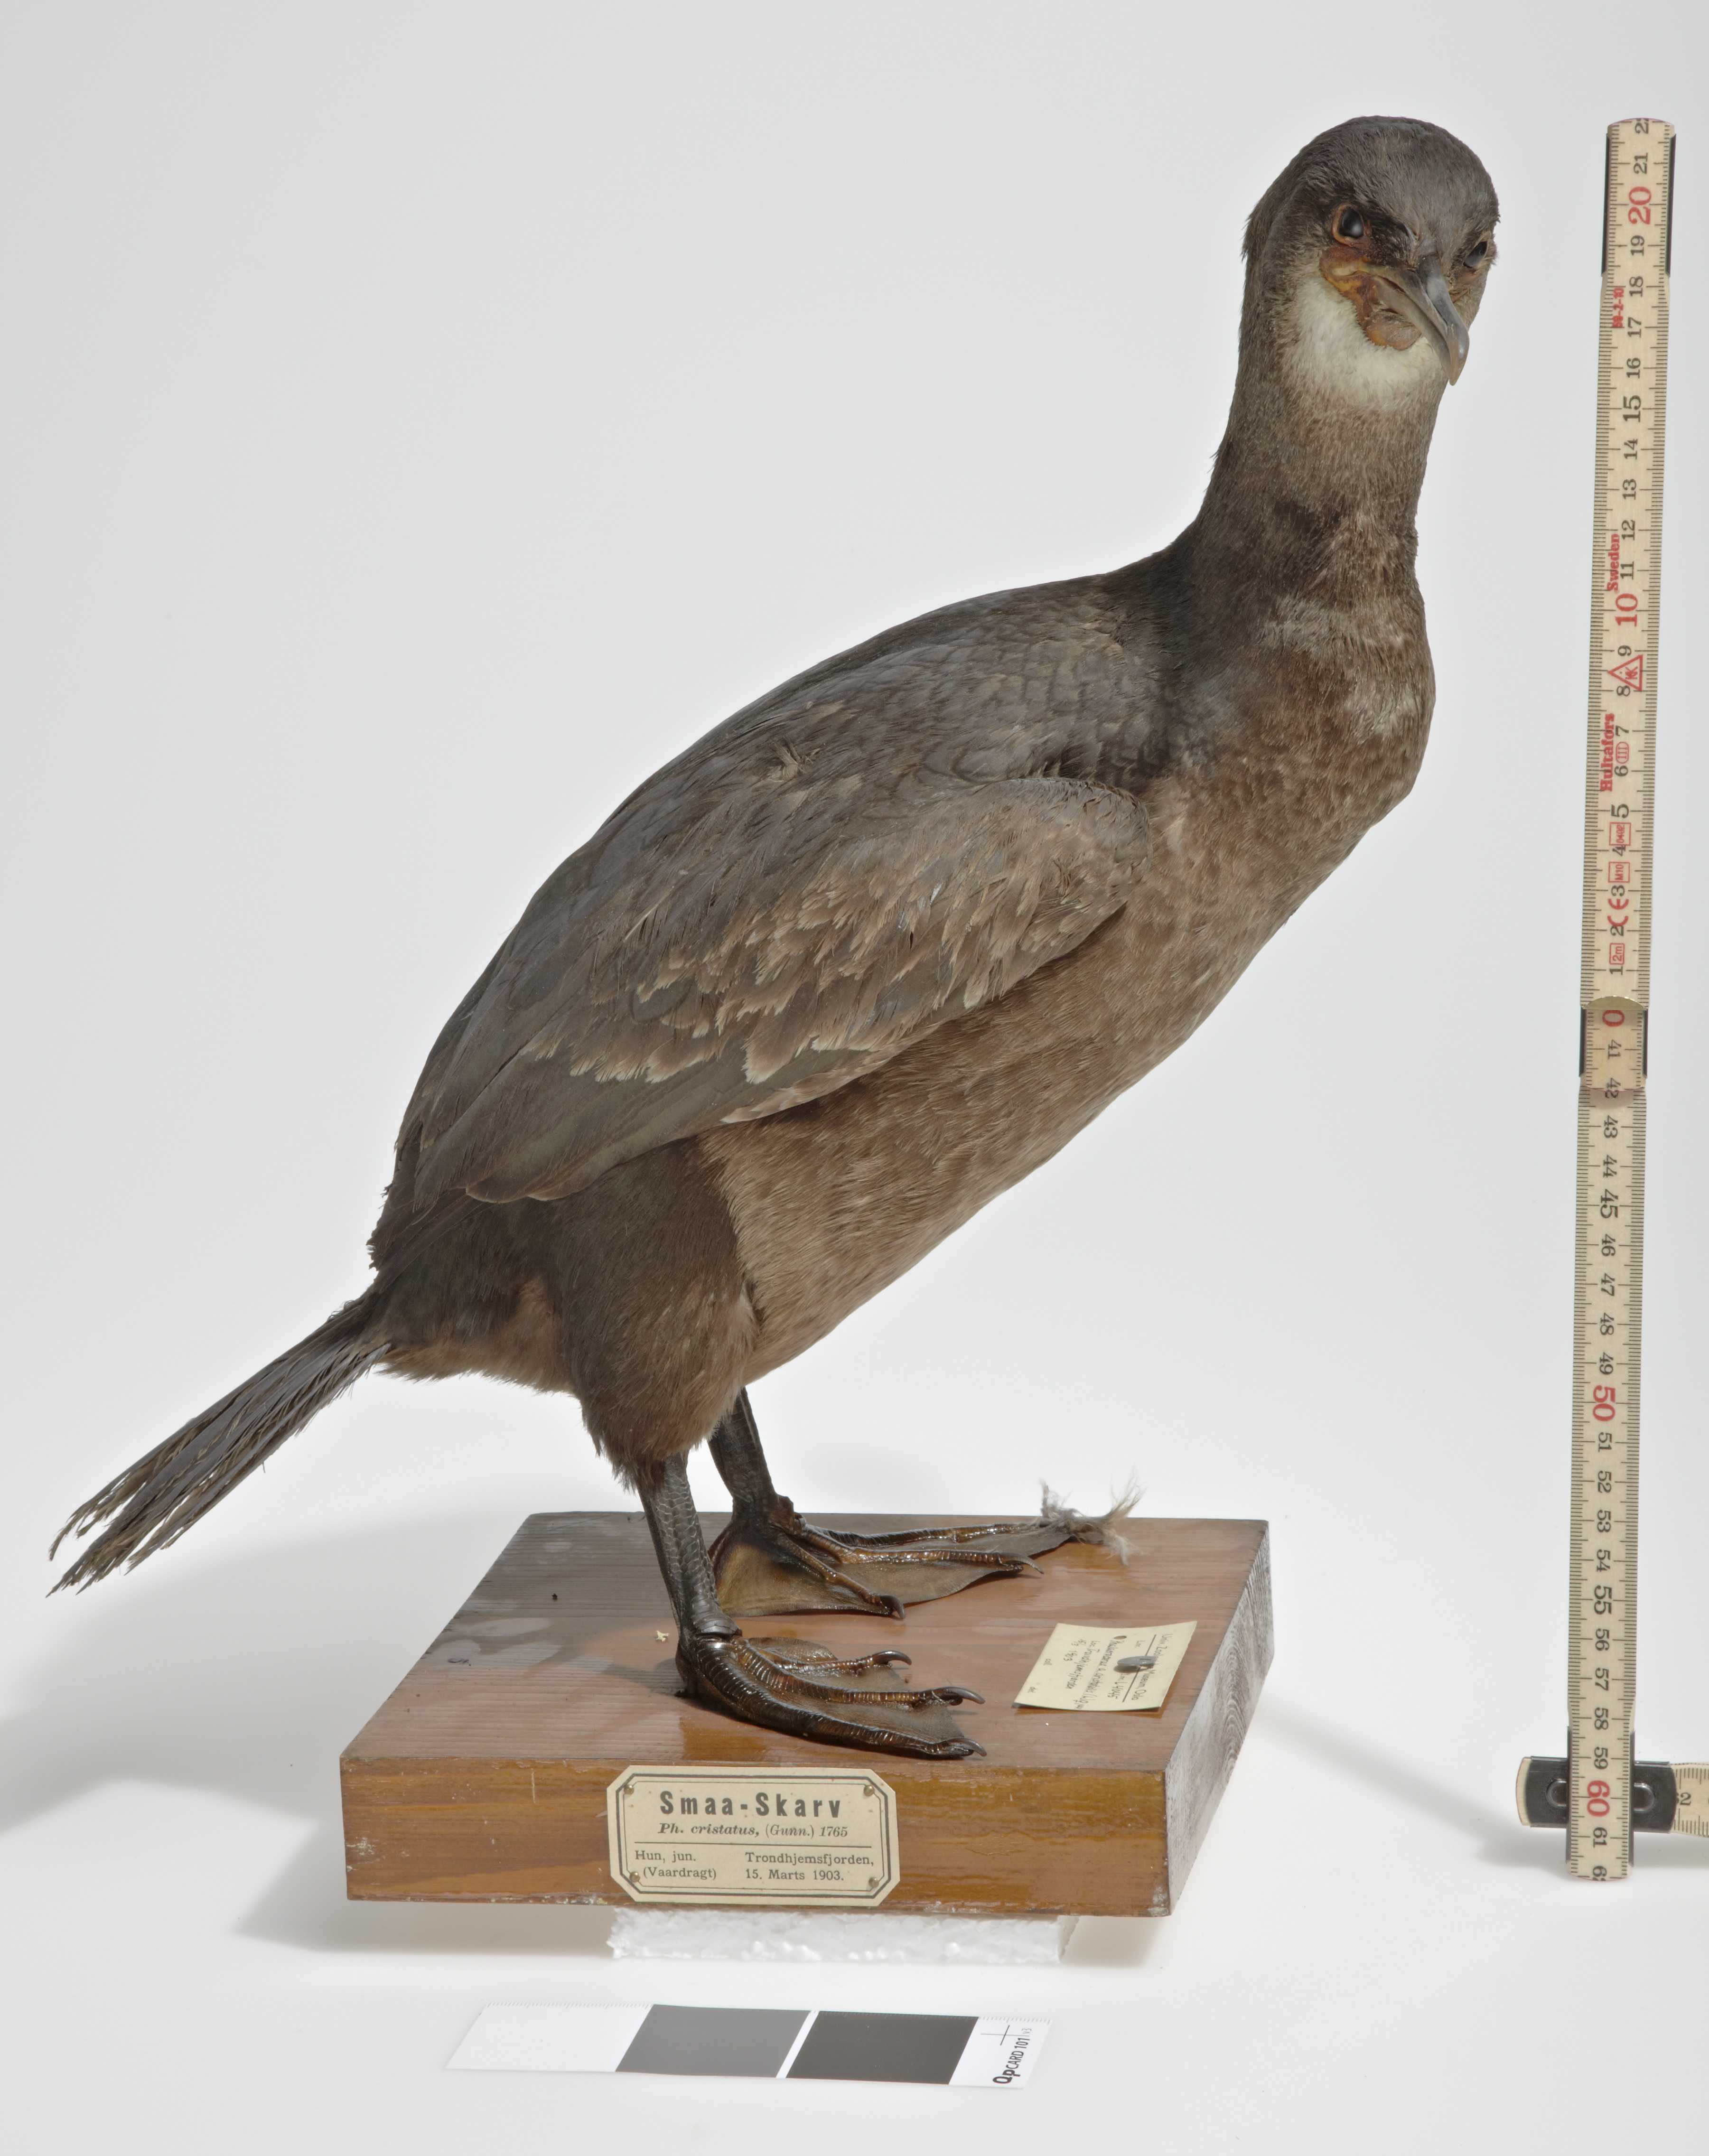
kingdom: Animalia
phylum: Chordata
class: Aves
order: Suliformes
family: Phalacrocoracidae
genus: Phalacrocorax
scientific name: Phalacrocorax aristotelis
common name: European shag
